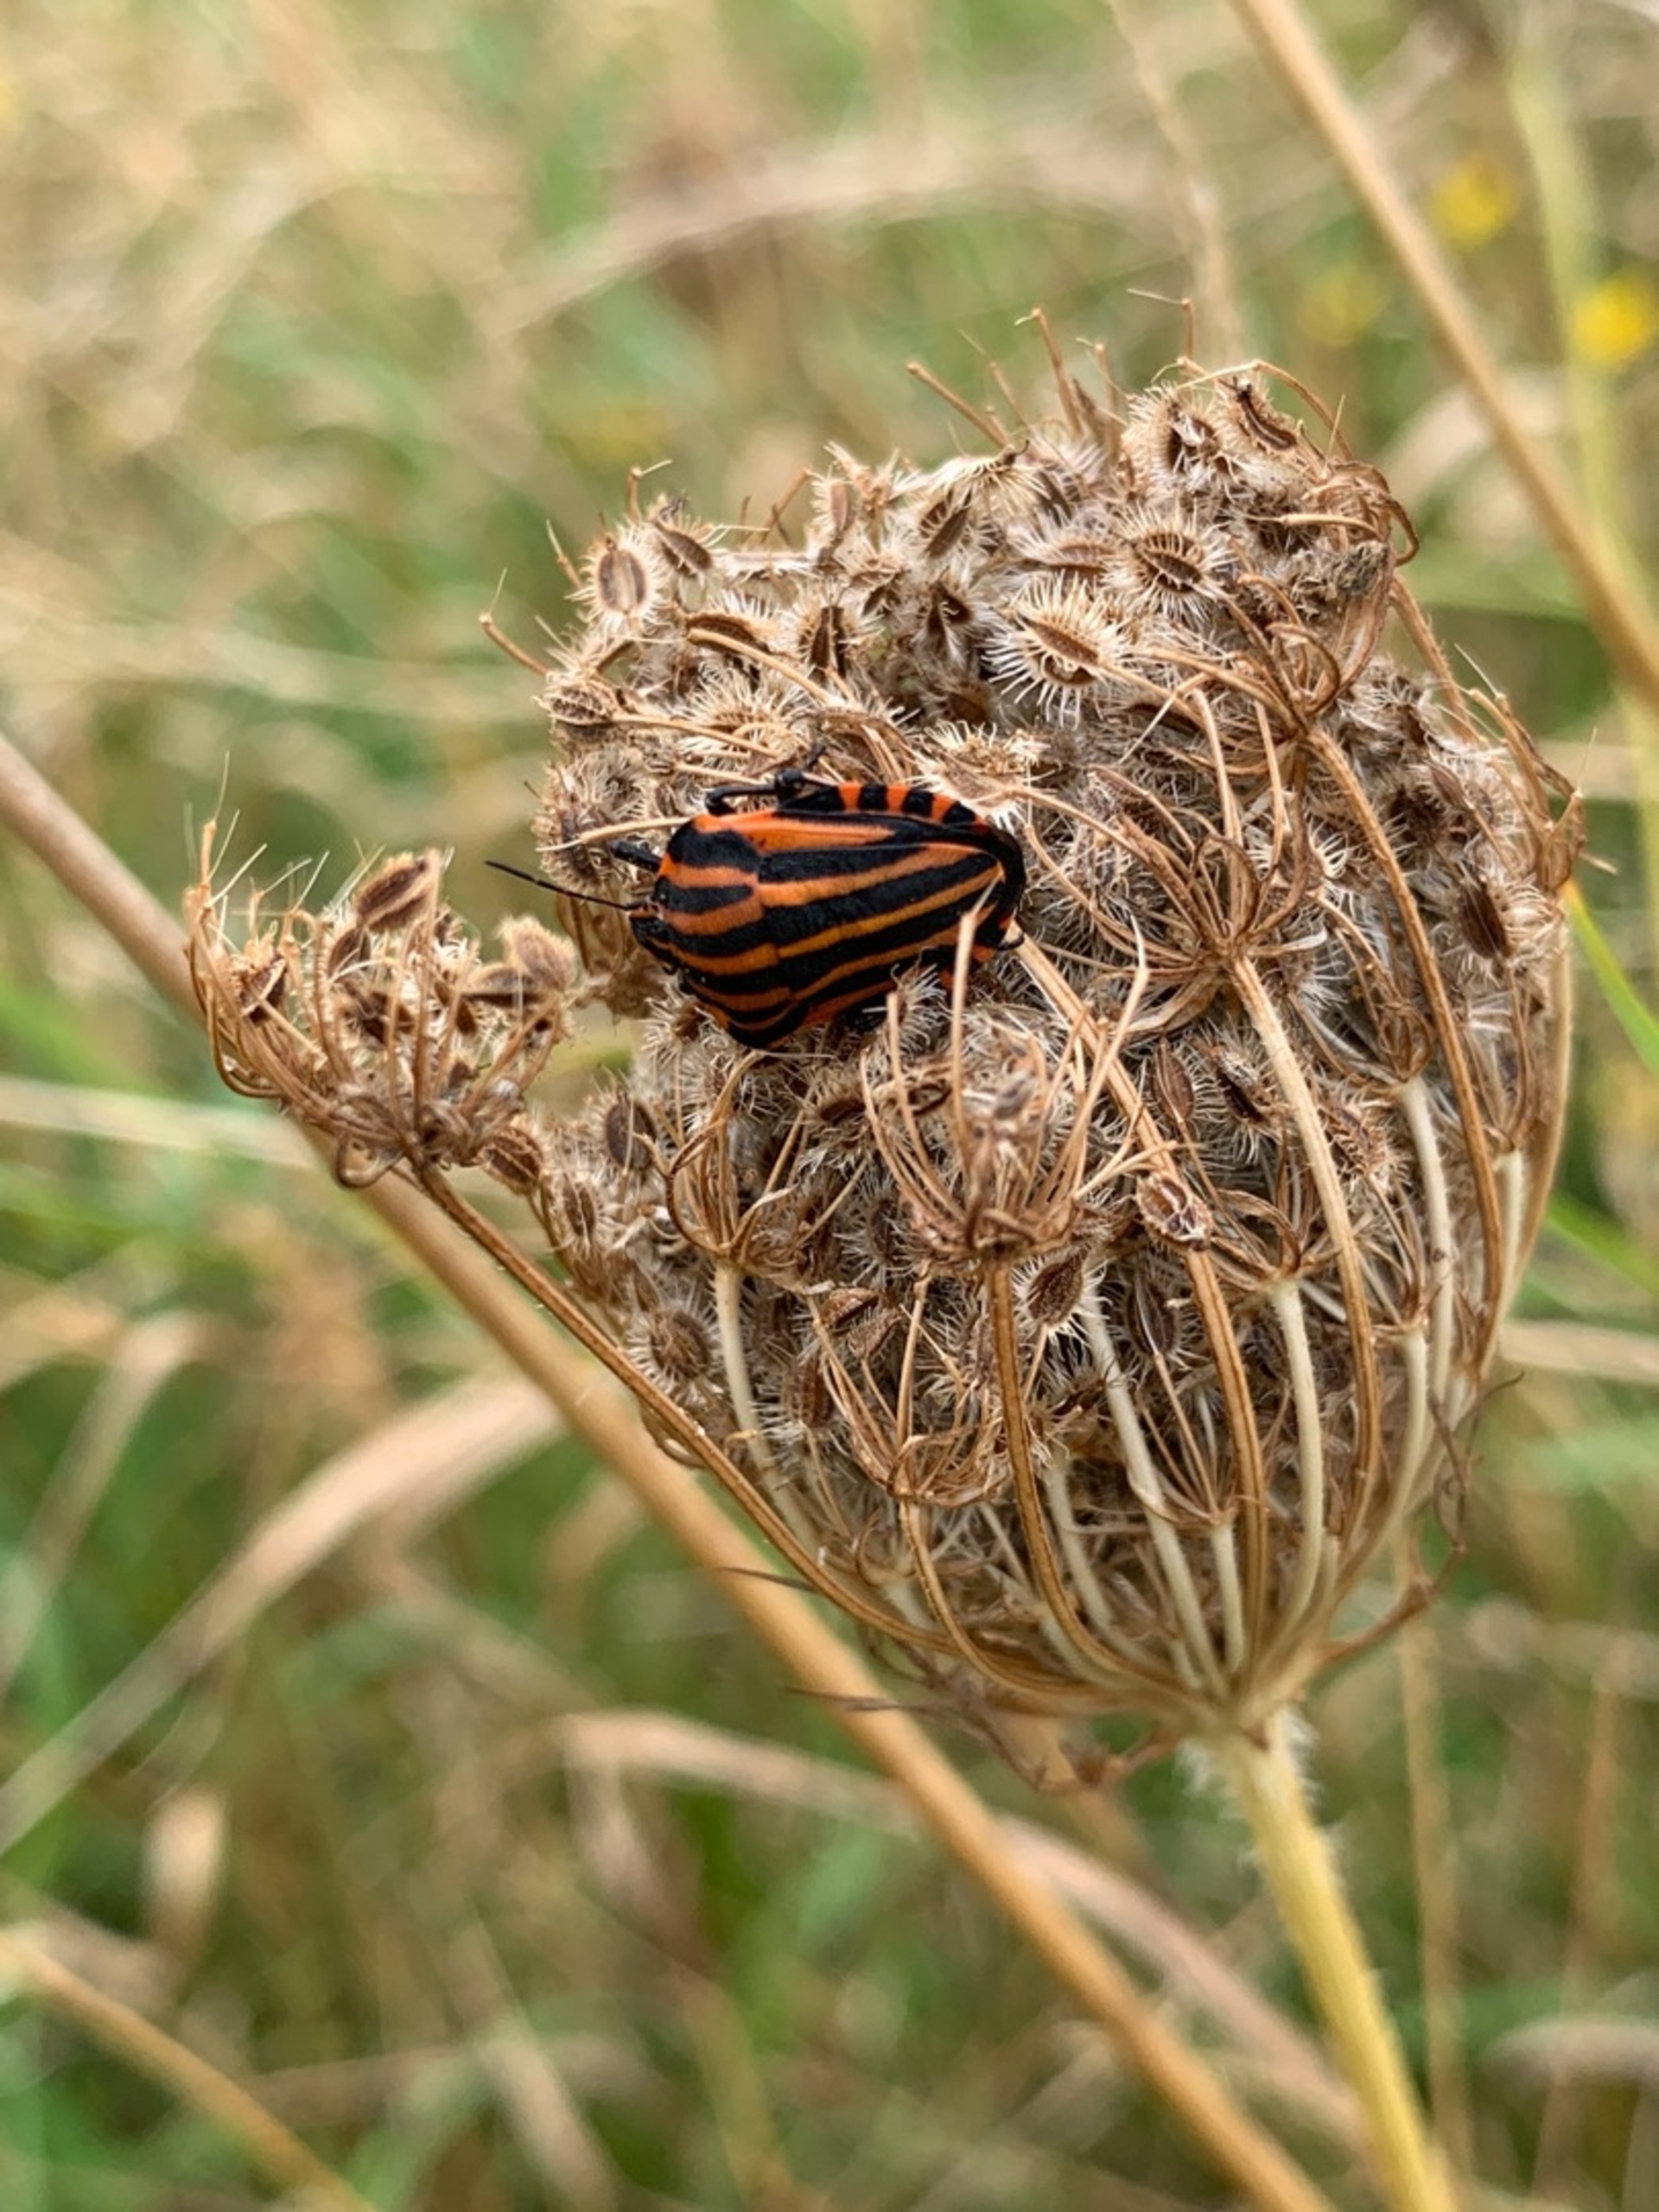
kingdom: Animalia
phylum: Arthropoda
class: Insecta
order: Hemiptera
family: Pentatomidae
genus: Graphosoma
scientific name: Graphosoma italicum
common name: Stribetæge
